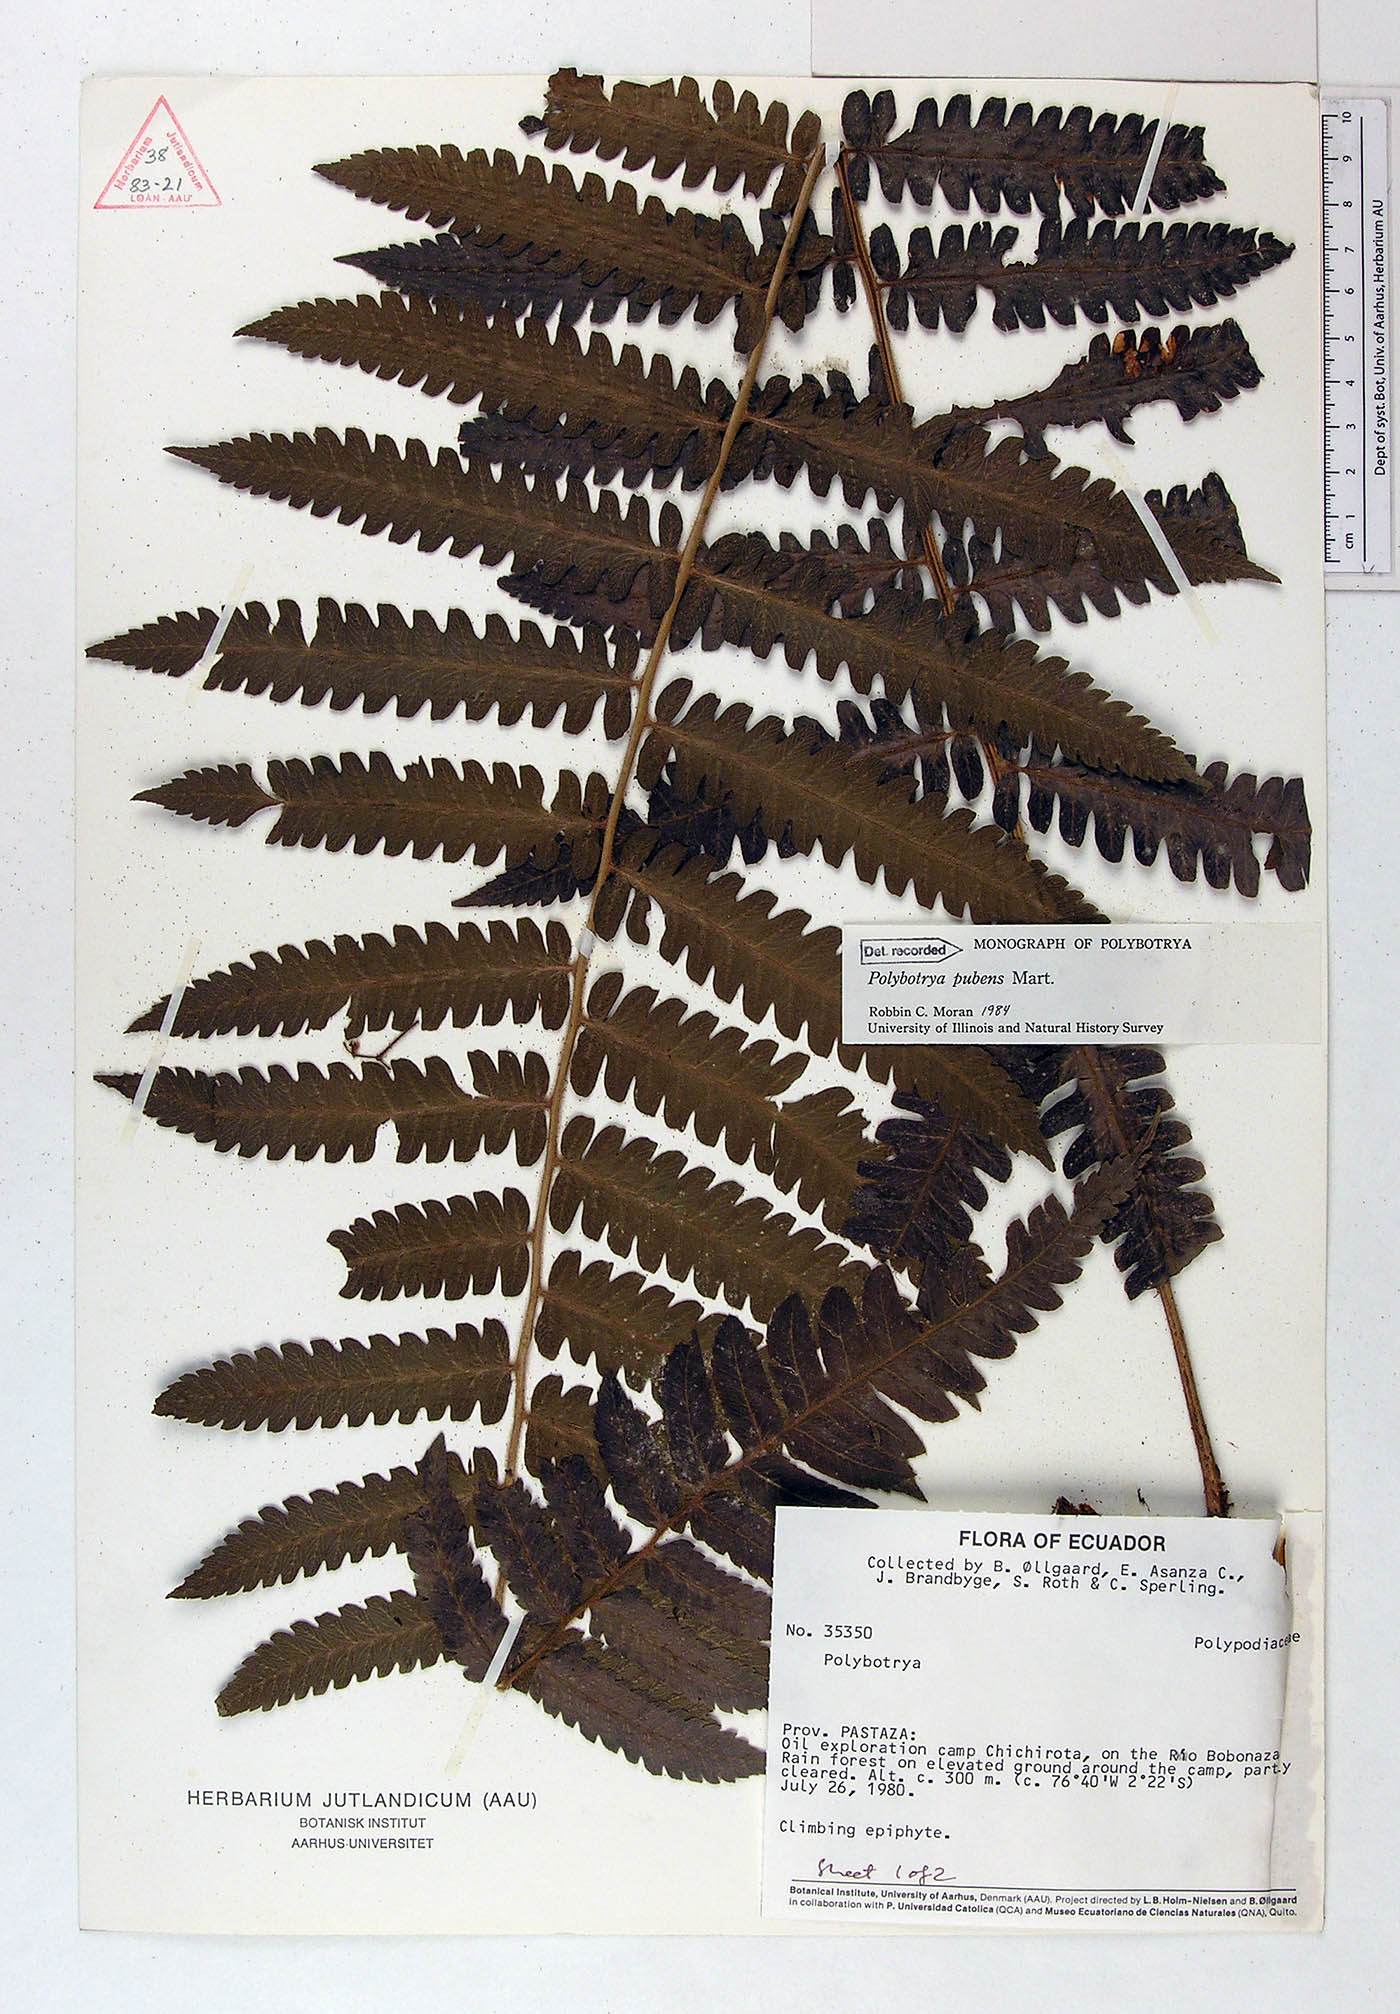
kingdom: Plantae
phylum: Tracheophyta
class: Polypodiopsida
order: Polypodiales
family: Dryopteridaceae
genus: Polybotrya
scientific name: Polybotrya pubens
